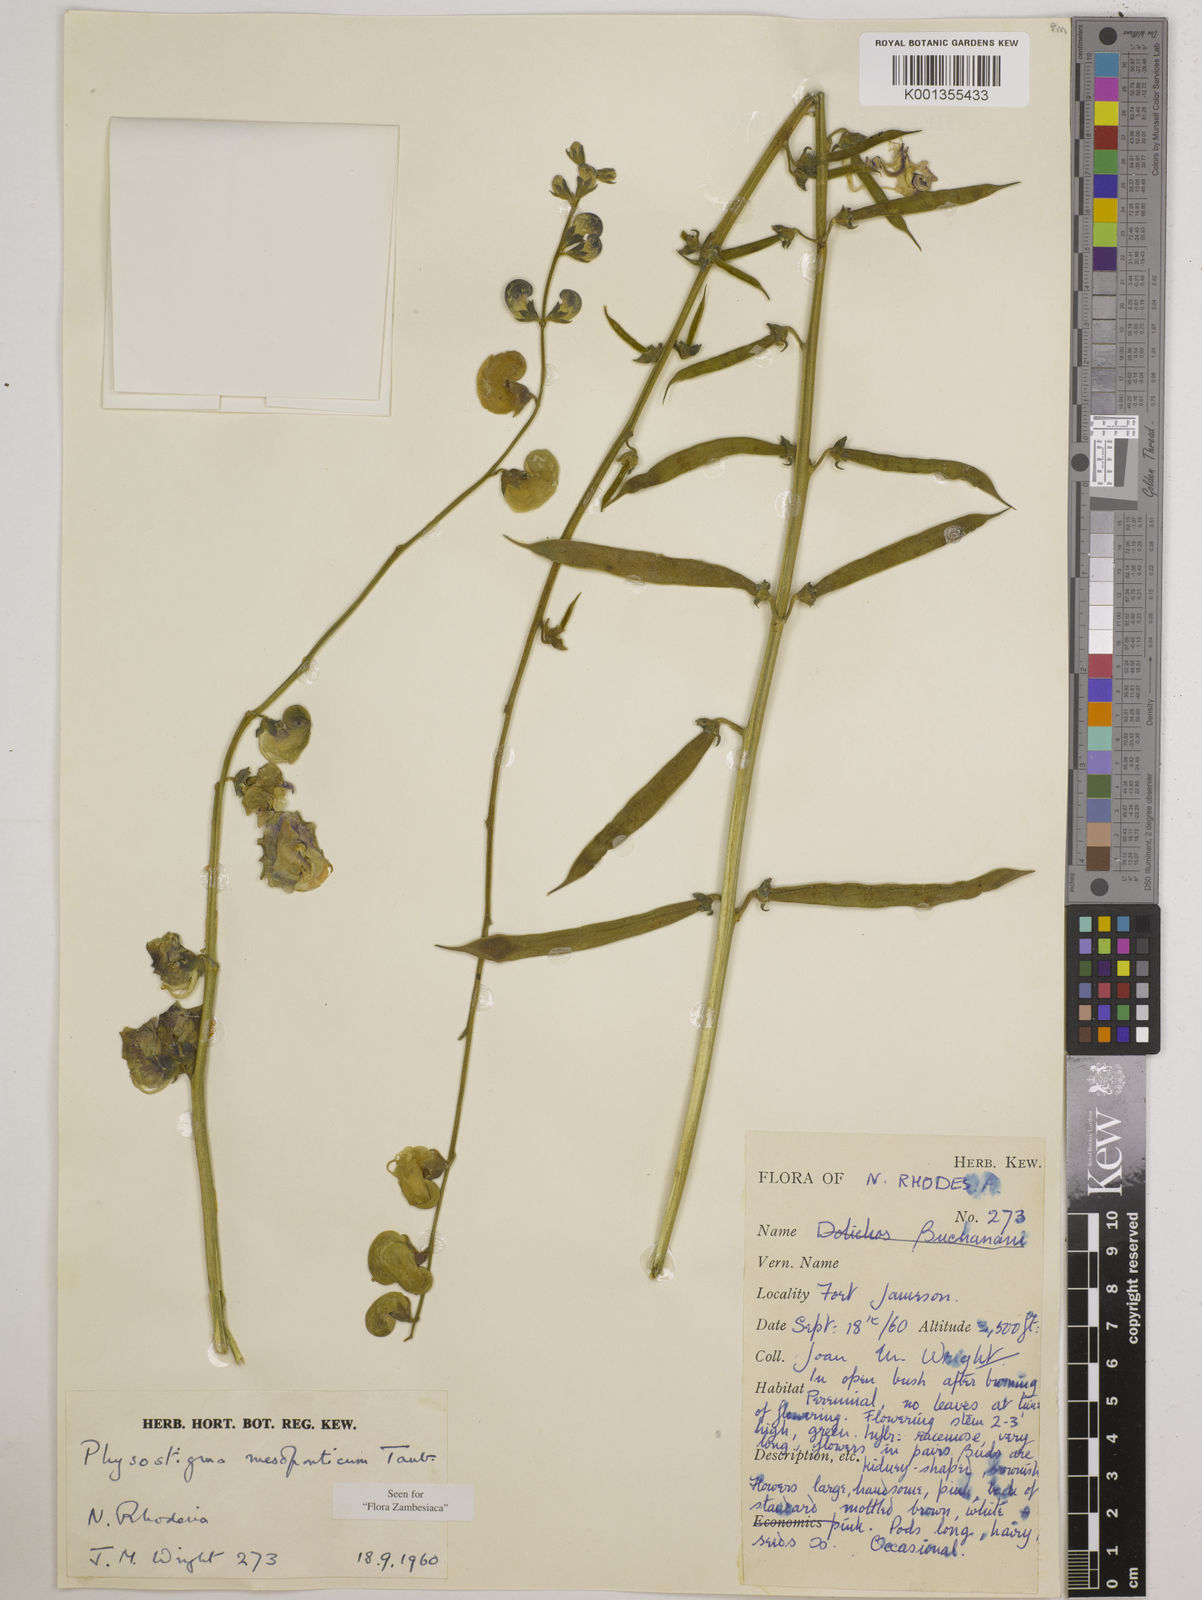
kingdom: Plantae
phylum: Tracheophyta
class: Magnoliopsida
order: Fabales
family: Fabaceae
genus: Physostigma
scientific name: Physostigma mesoponticum
